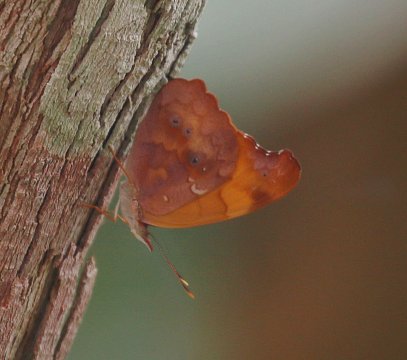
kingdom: Animalia
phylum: Arthropoda
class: Insecta
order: Lepidoptera
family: Nymphalidae
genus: Temenis
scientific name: Temenis laothoe
